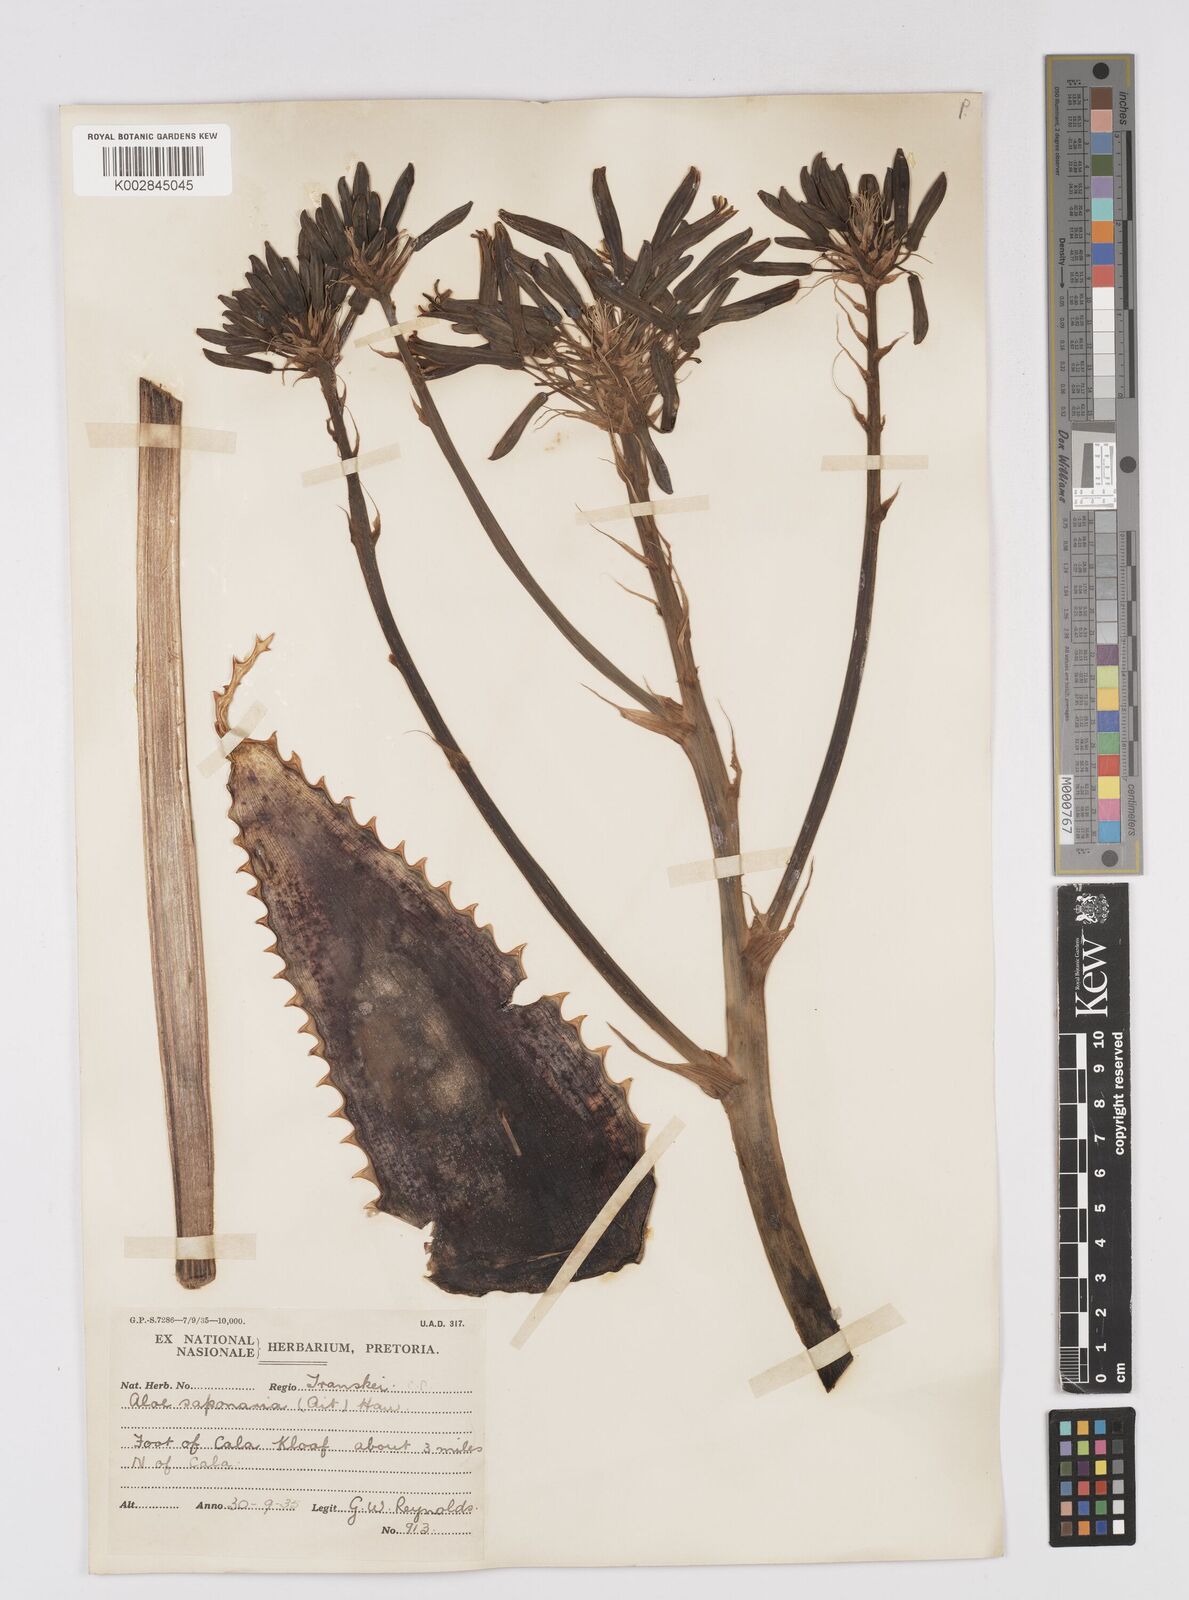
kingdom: Plantae
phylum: Tracheophyta
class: Liliopsida
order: Asparagales
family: Asphodelaceae
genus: Aloe
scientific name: Aloe microstigma
